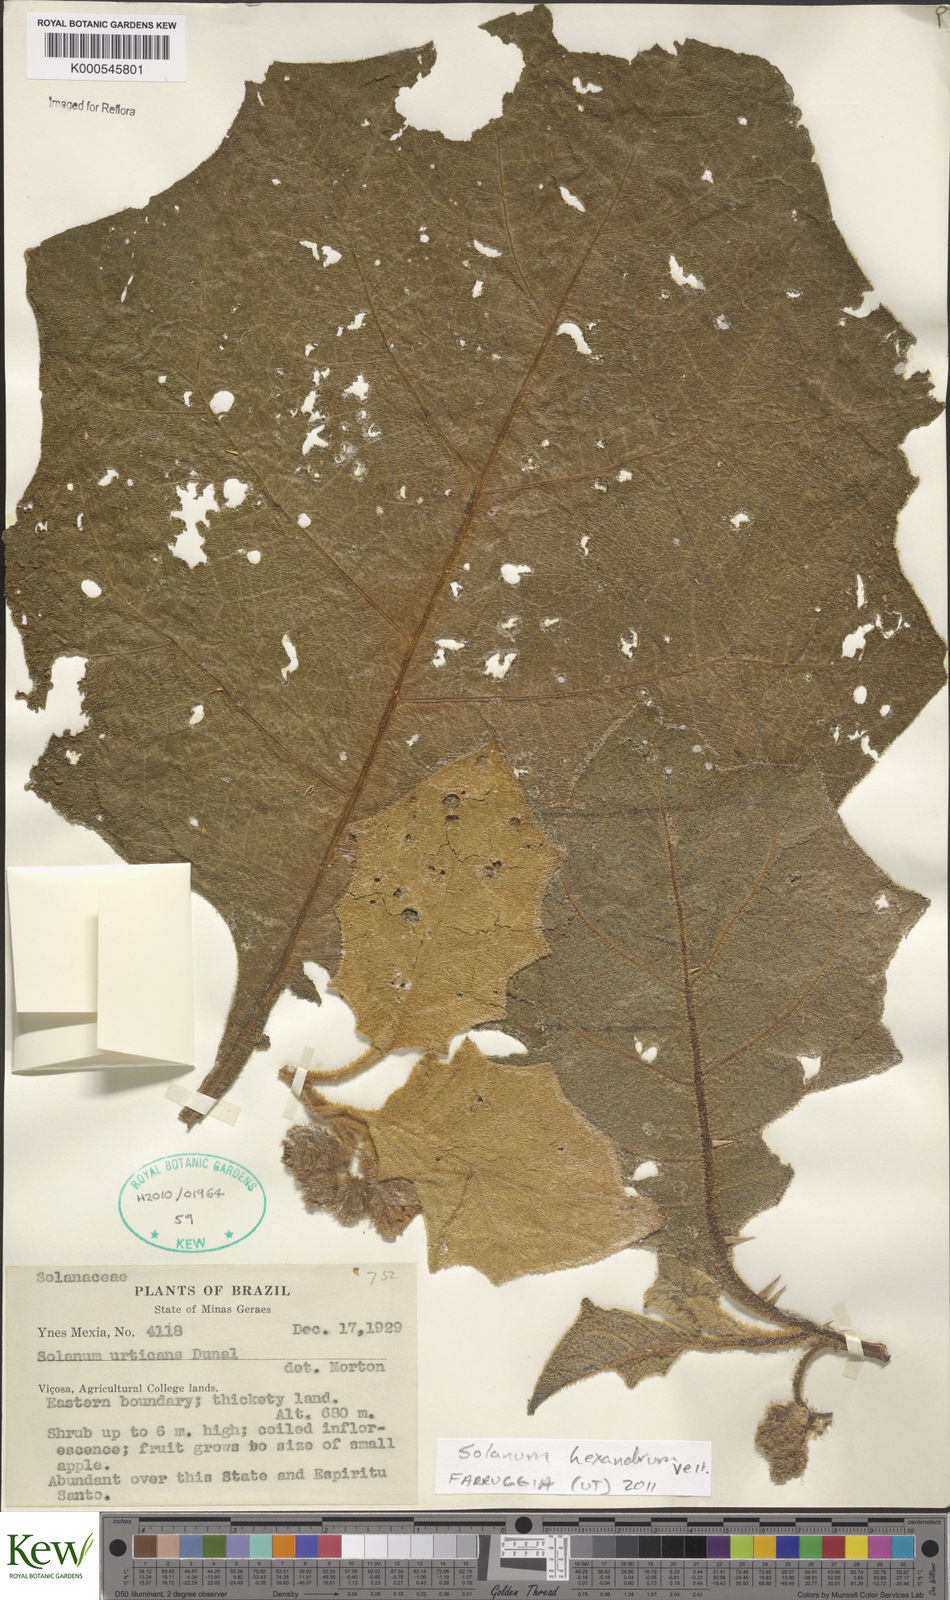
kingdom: Plantae
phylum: Tracheophyta
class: Magnoliopsida
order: Solanales
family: Solanaceae
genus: Solanum
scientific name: Solanum hexandrum
